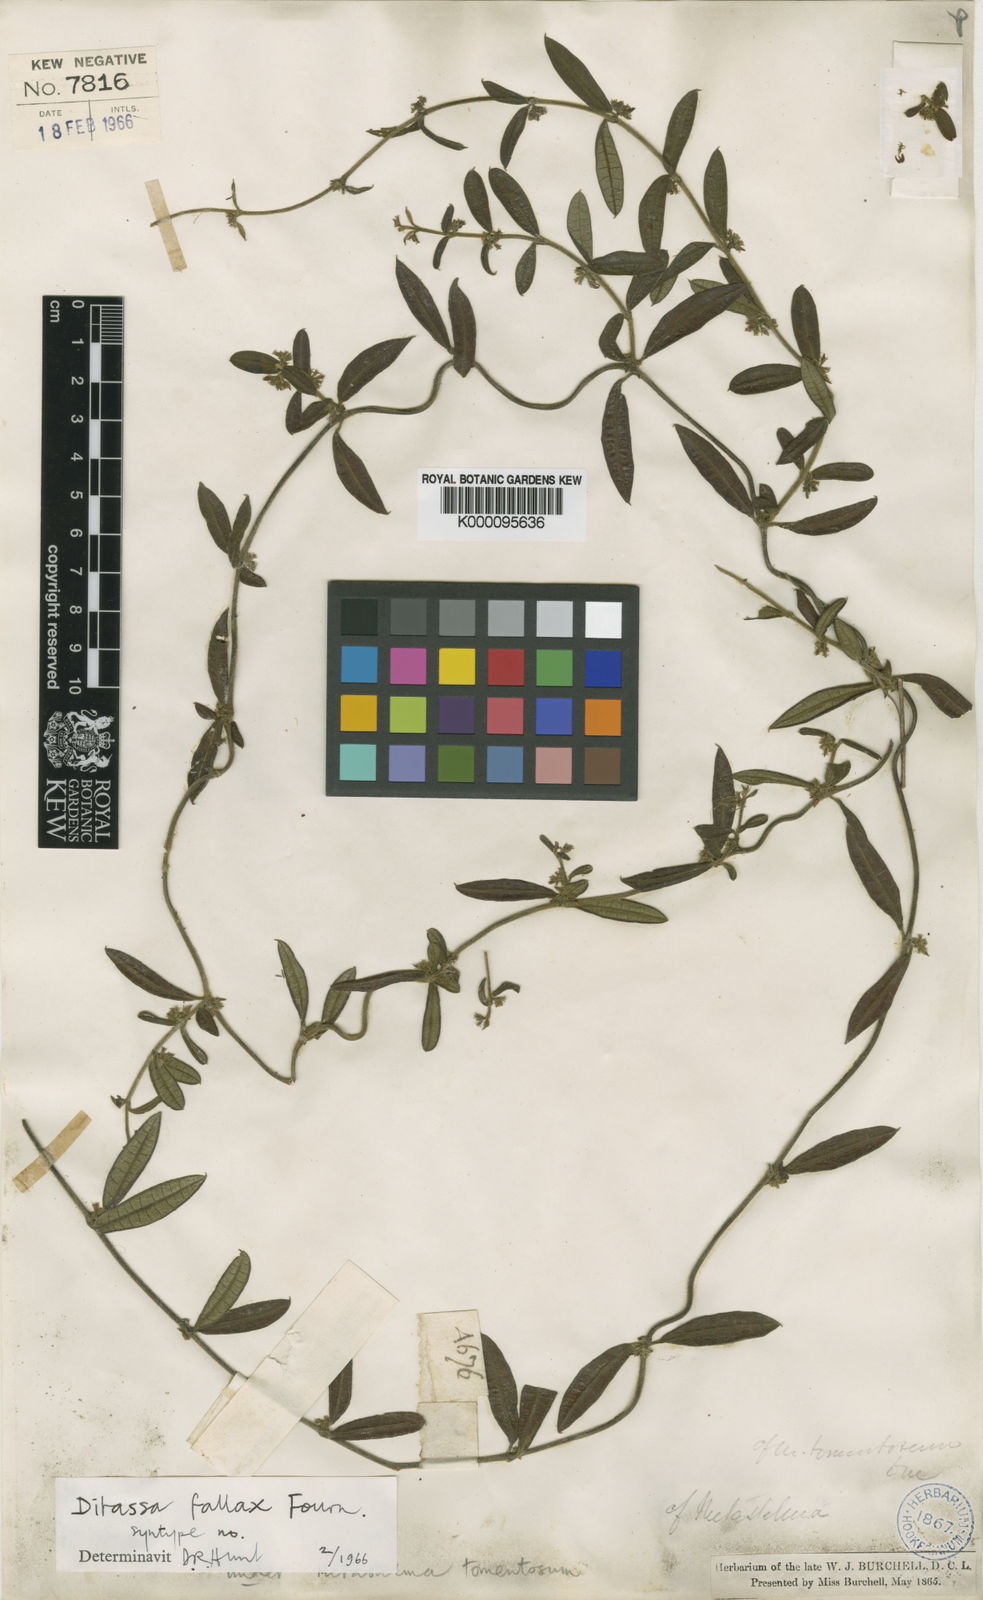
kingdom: Plantae
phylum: Tracheophyta
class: Magnoliopsida
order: Gentianales
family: Apocynaceae
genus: Ditassa
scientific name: Ditassa tomentosa
